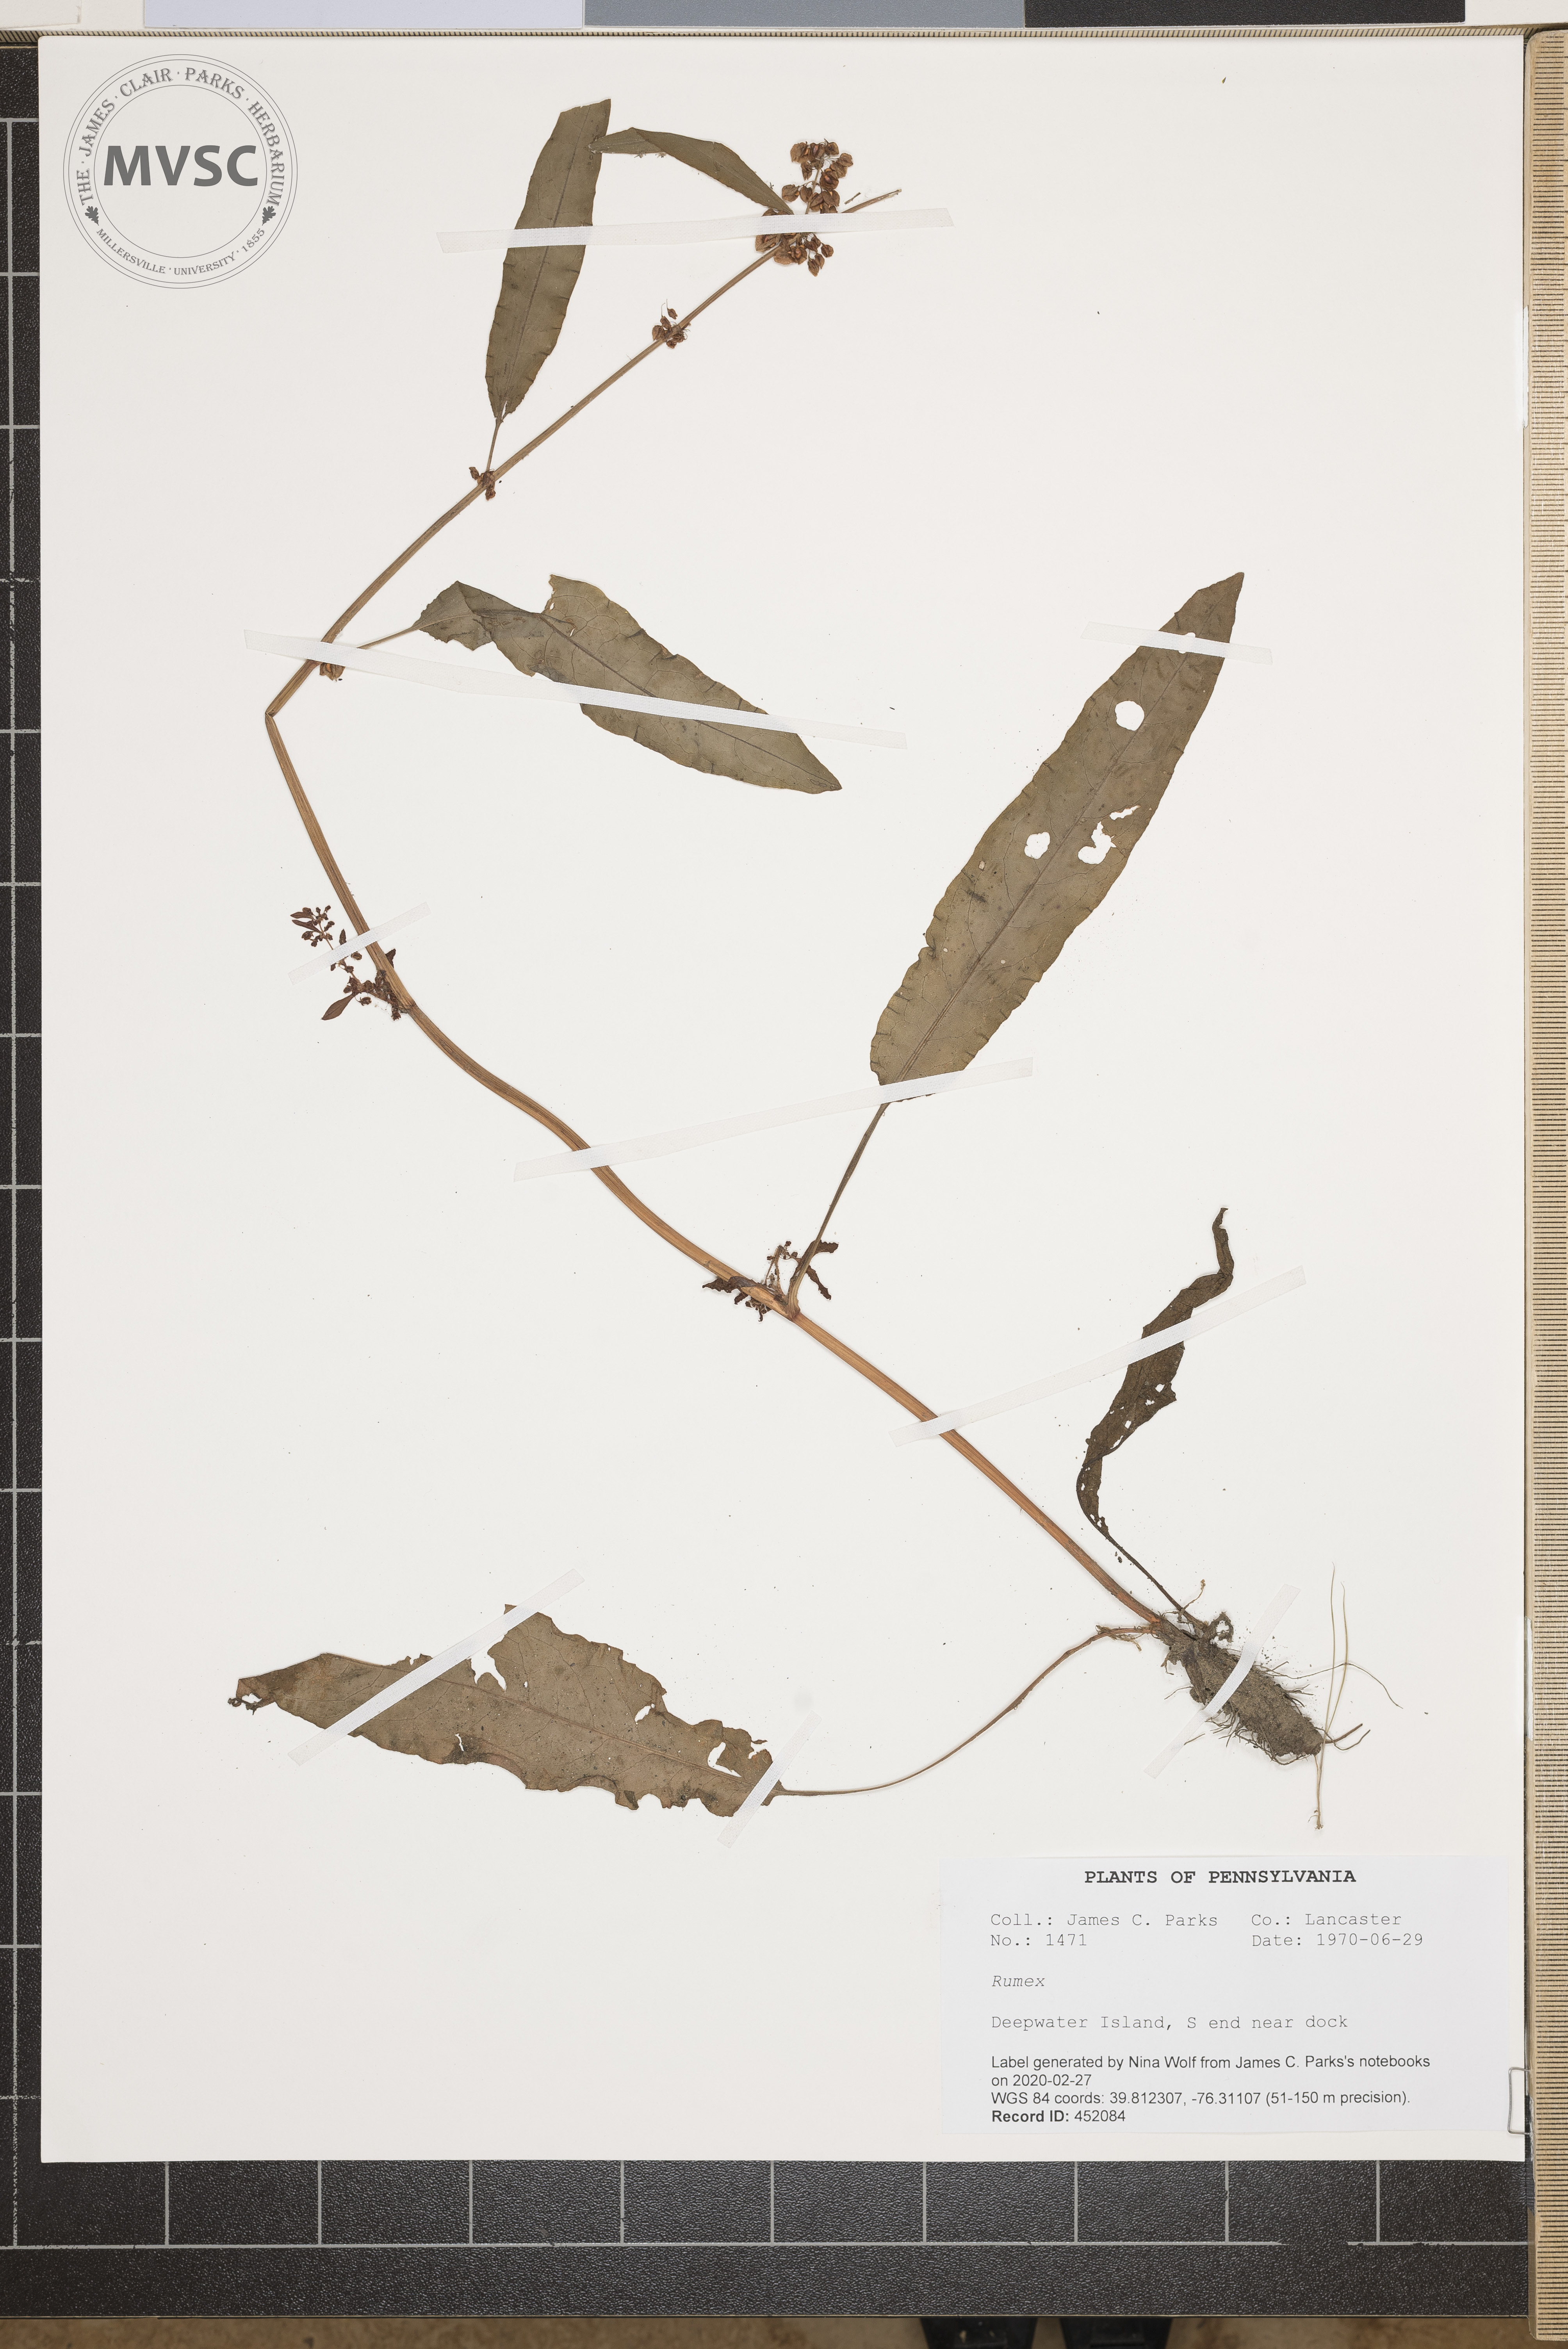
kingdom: Plantae
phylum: Tracheophyta
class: Magnoliopsida
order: Caryophyllales
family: Polygonaceae
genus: Rumex
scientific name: Rumex
